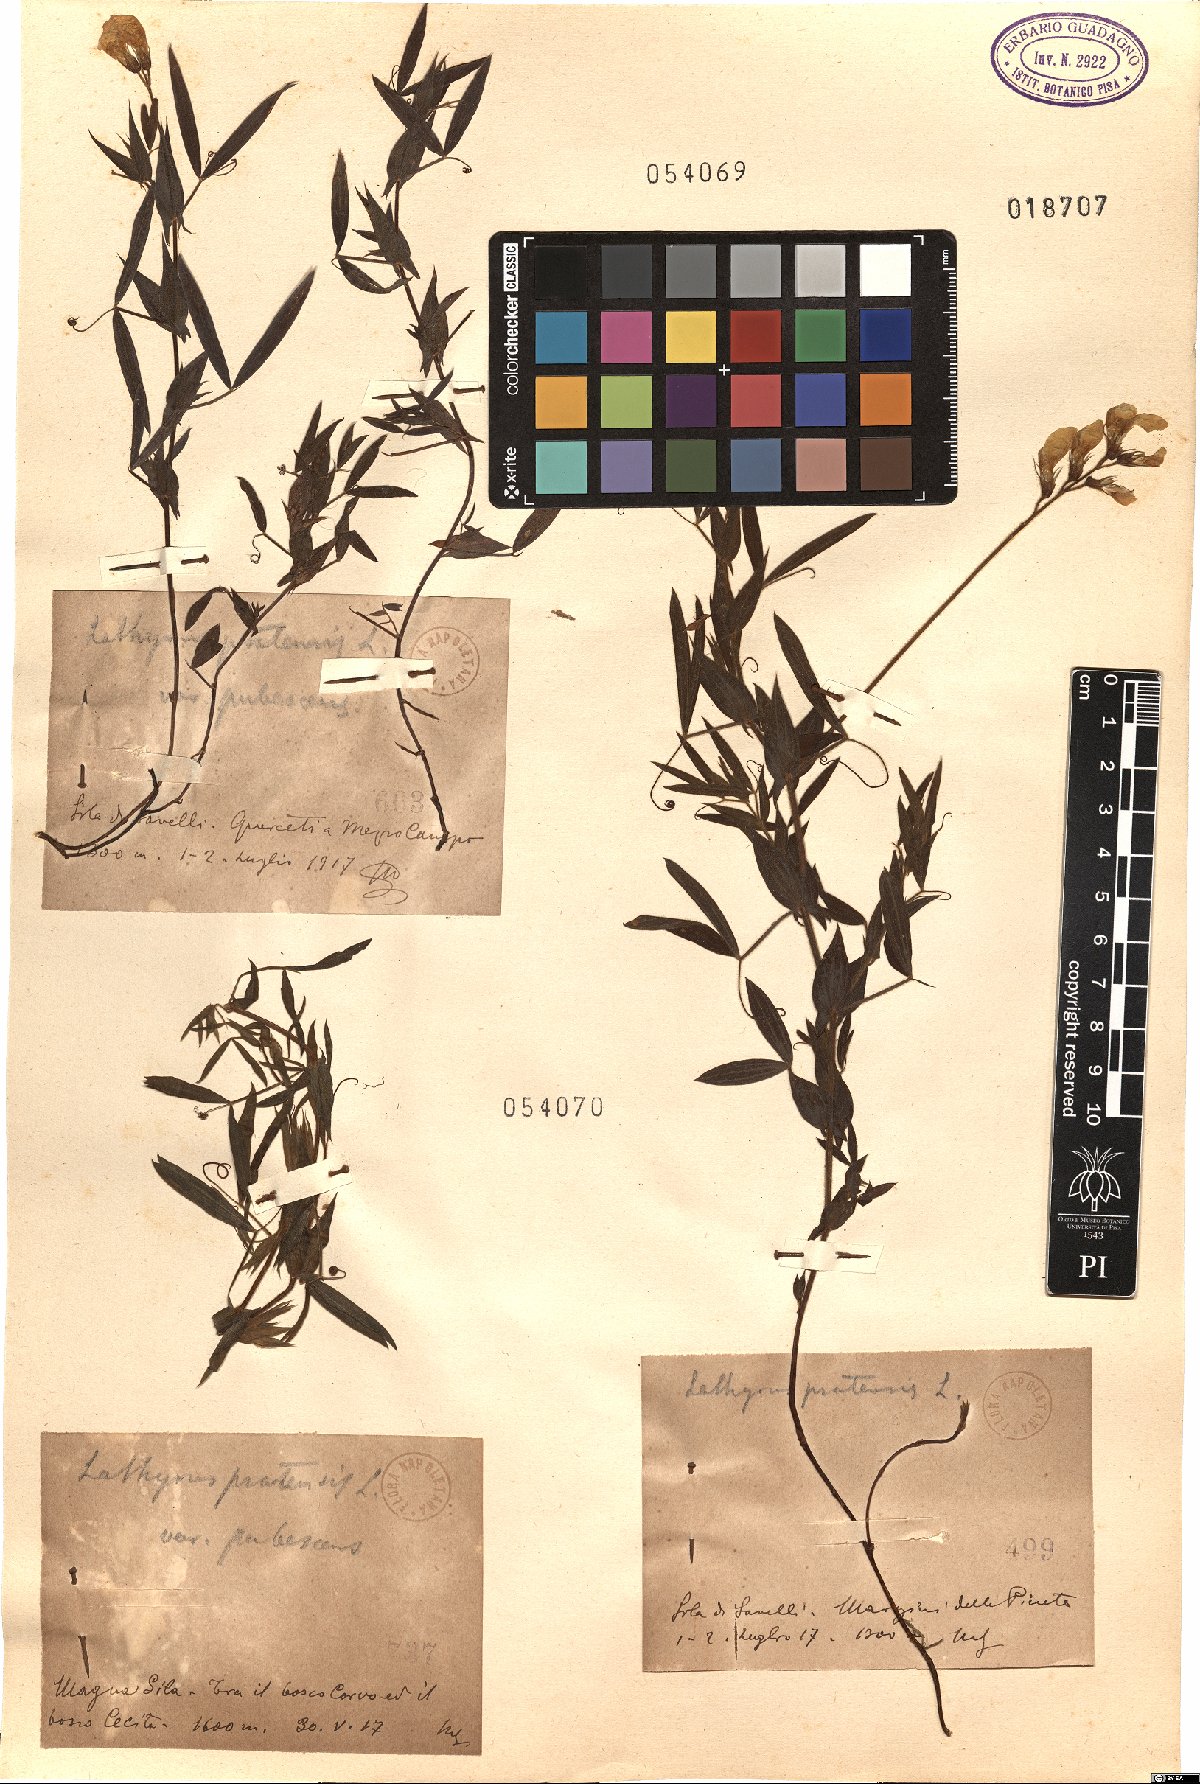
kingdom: Plantae
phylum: Tracheophyta
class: Magnoliopsida
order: Fabales
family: Fabaceae
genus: Lathyrus
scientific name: Lathyrus pratensis
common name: Meadow vetchling
